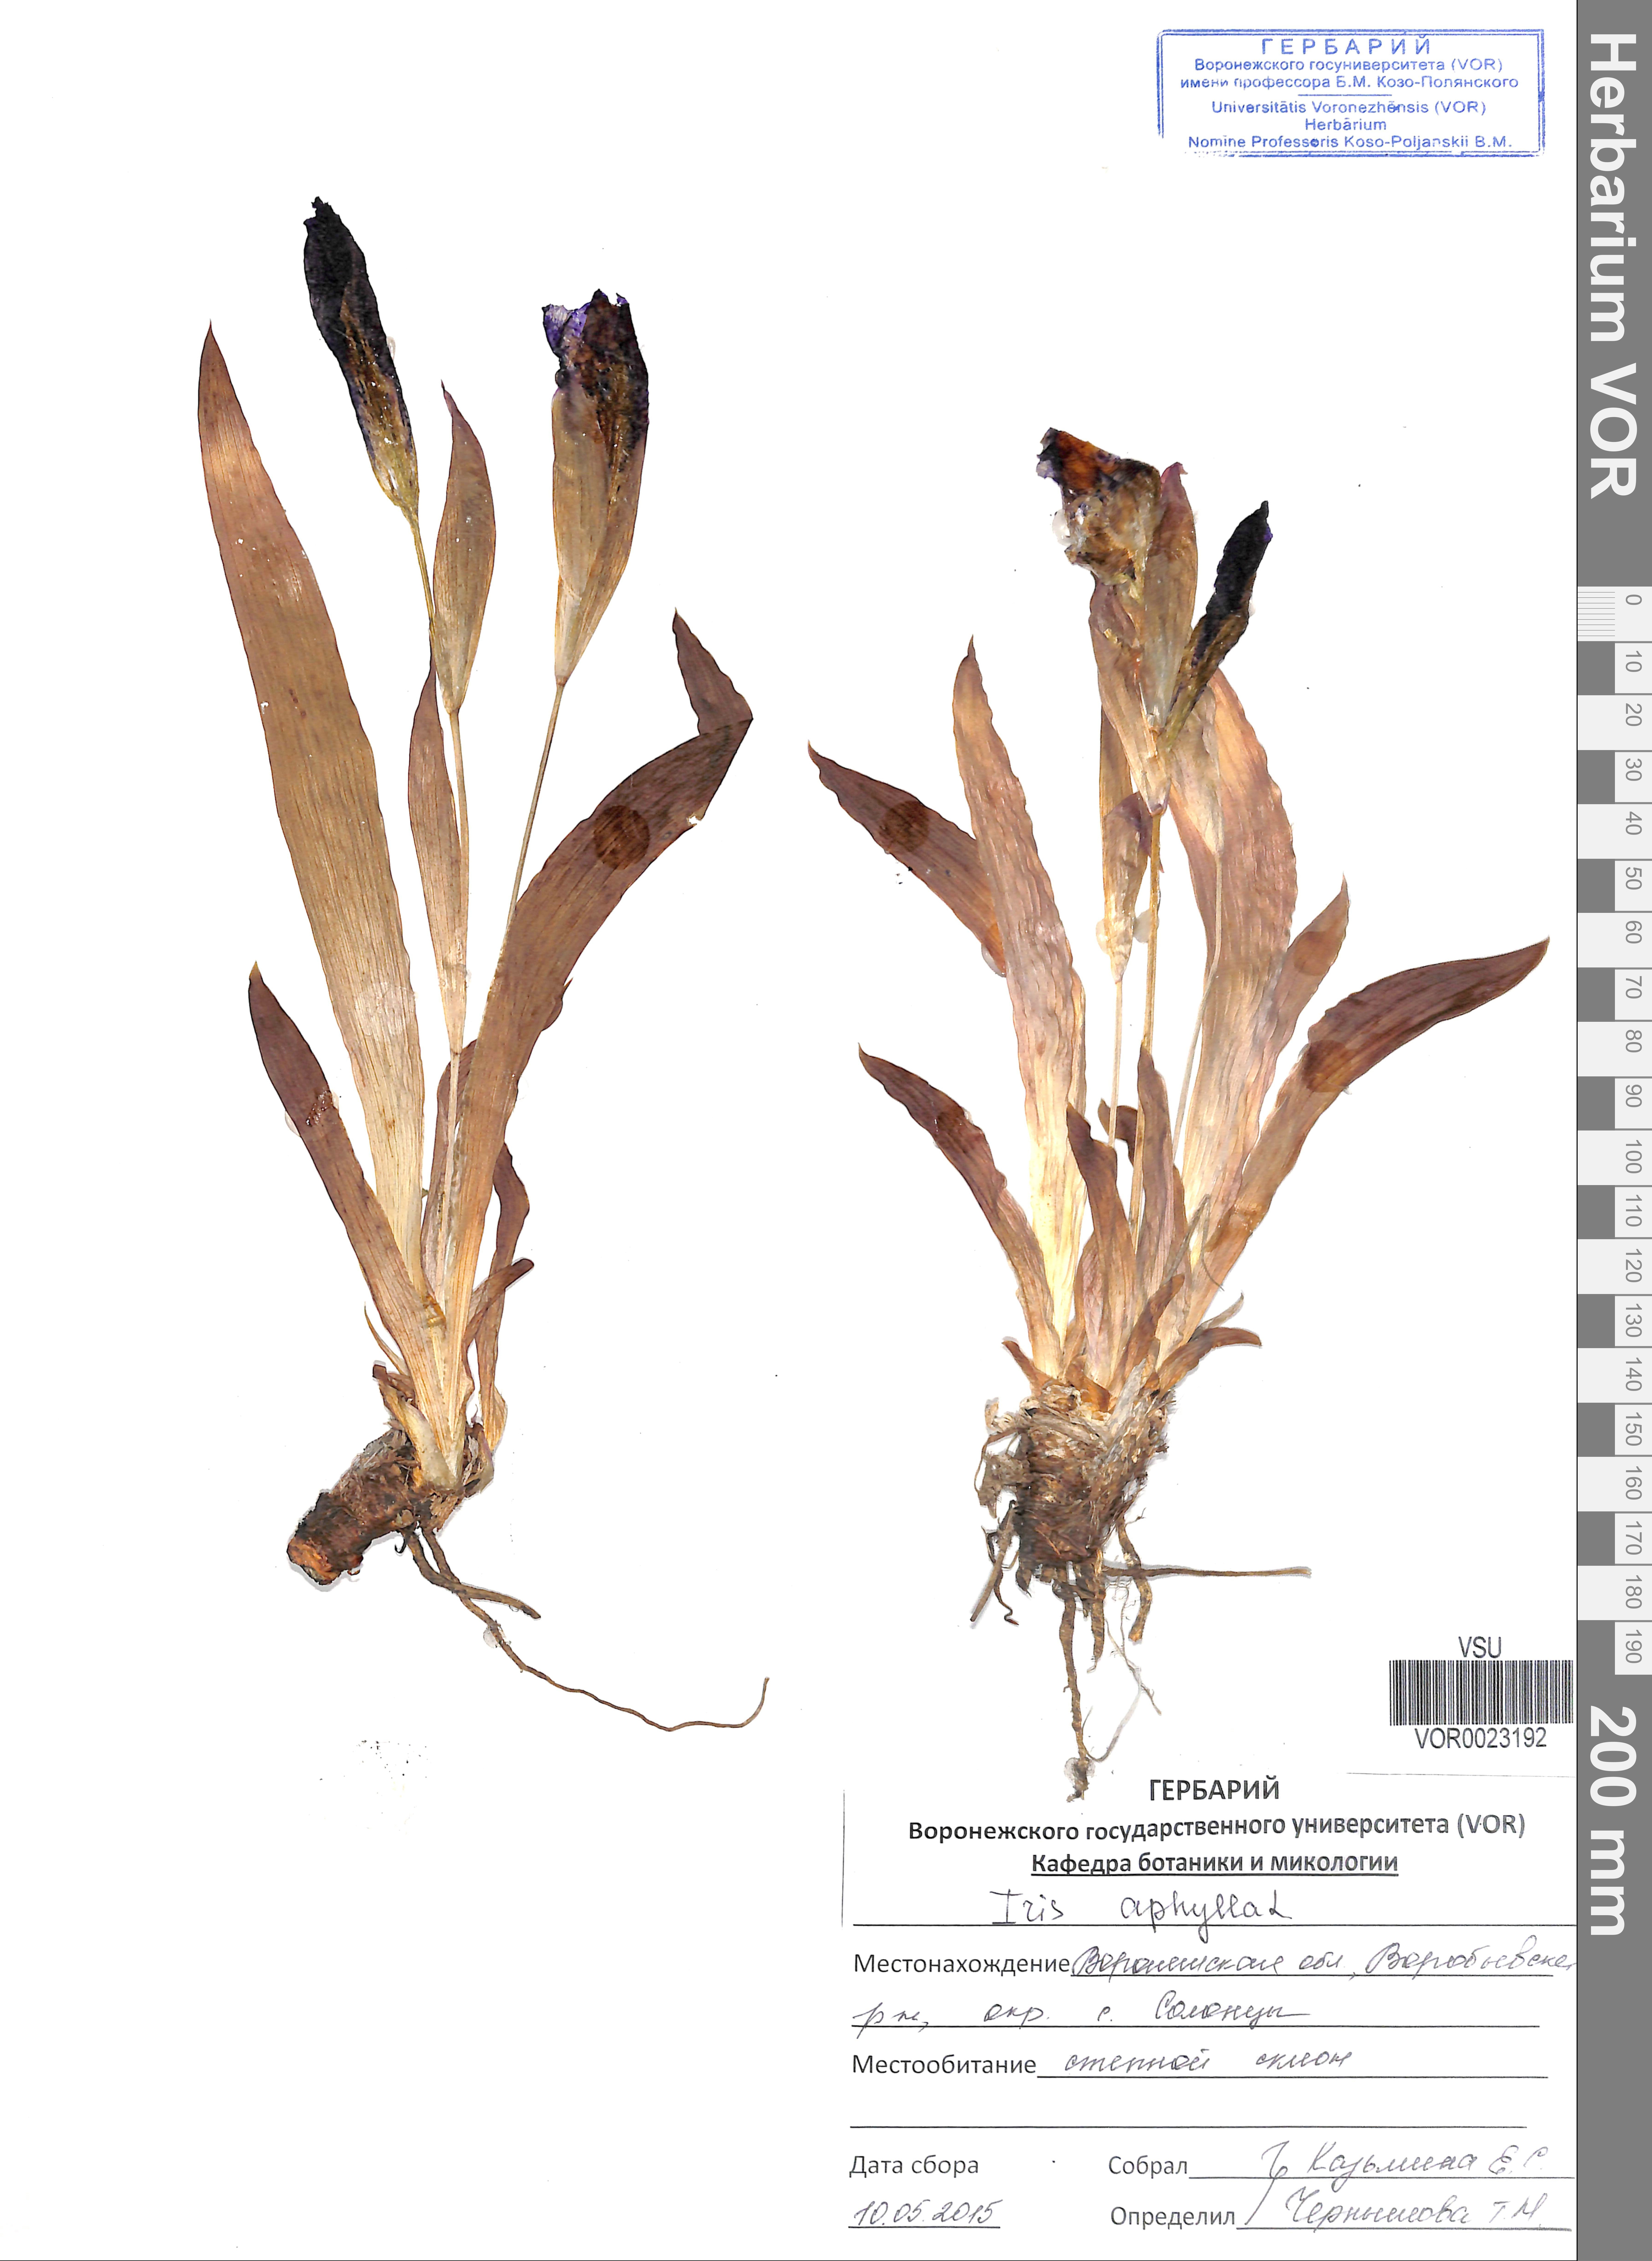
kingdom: Plantae
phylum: Tracheophyta
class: Liliopsida
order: Asparagales
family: Iridaceae
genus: Iris
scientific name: Iris aphylla
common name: Stool iris
